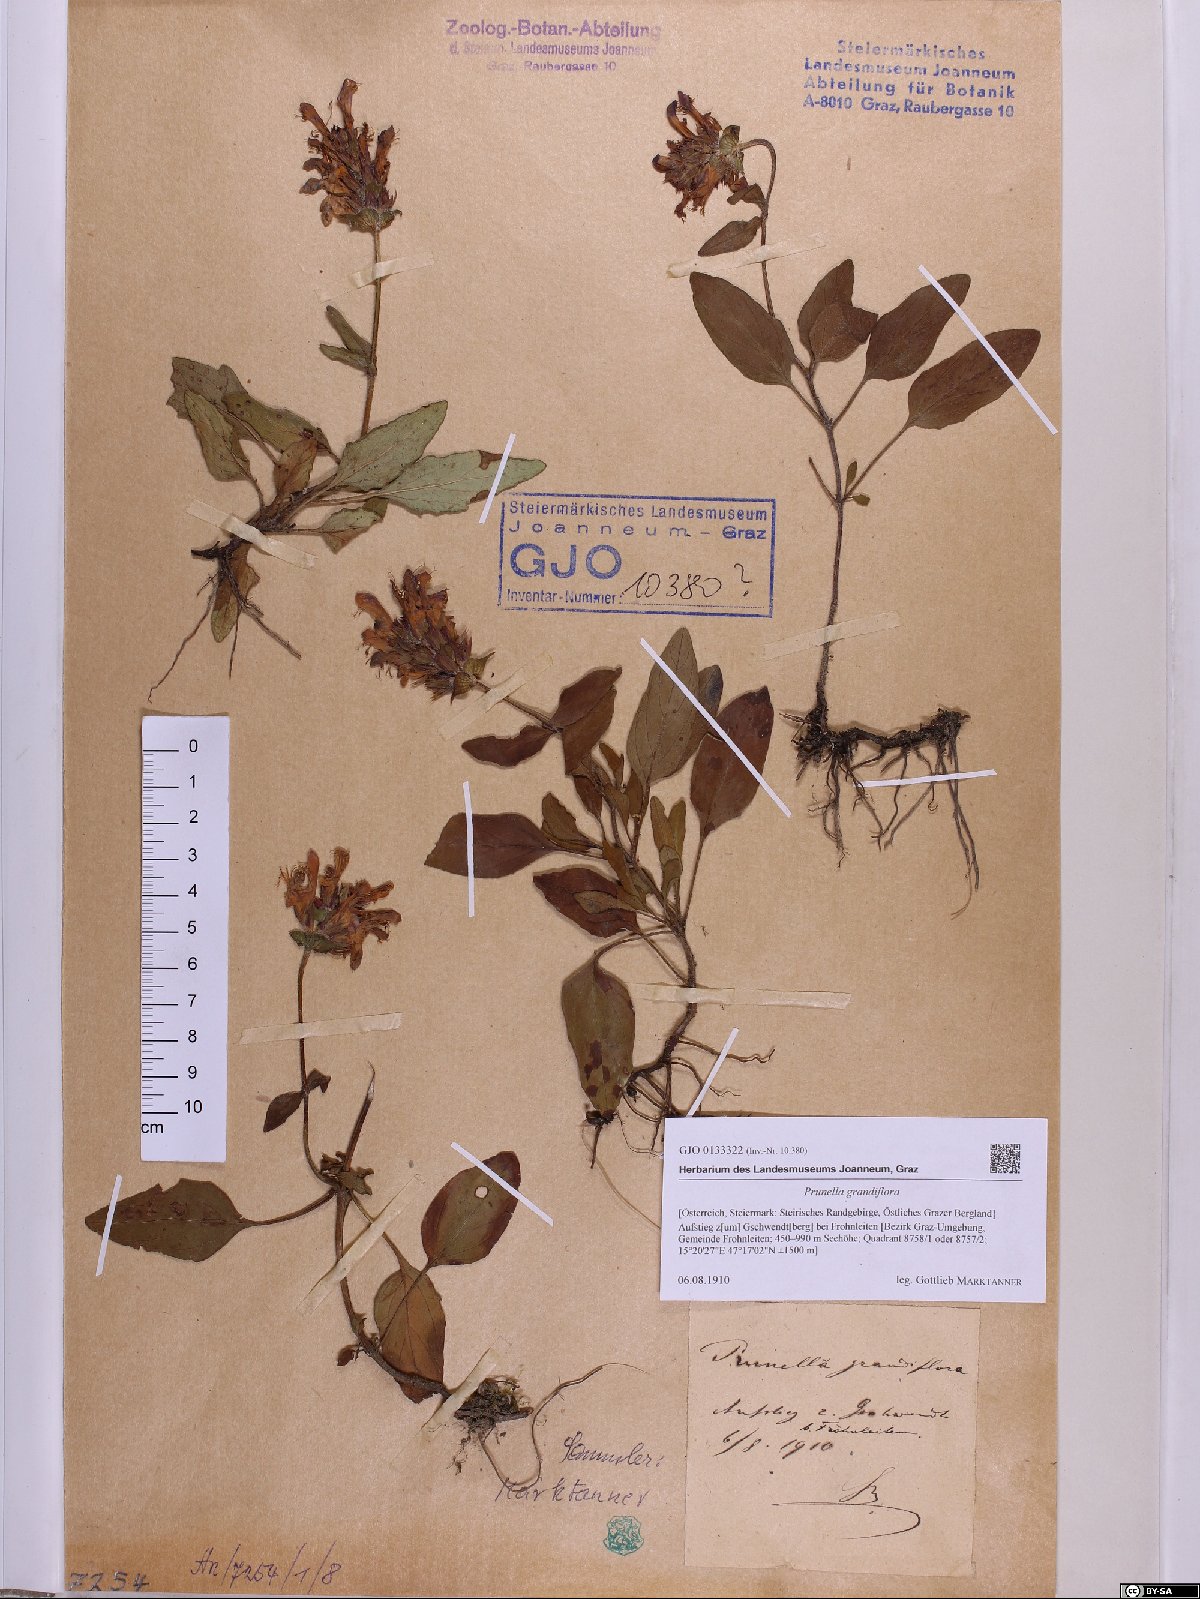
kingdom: Plantae
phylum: Tracheophyta
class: Magnoliopsida
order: Lamiales
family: Lamiaceae
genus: Prunella
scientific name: Prunella grandiflora
